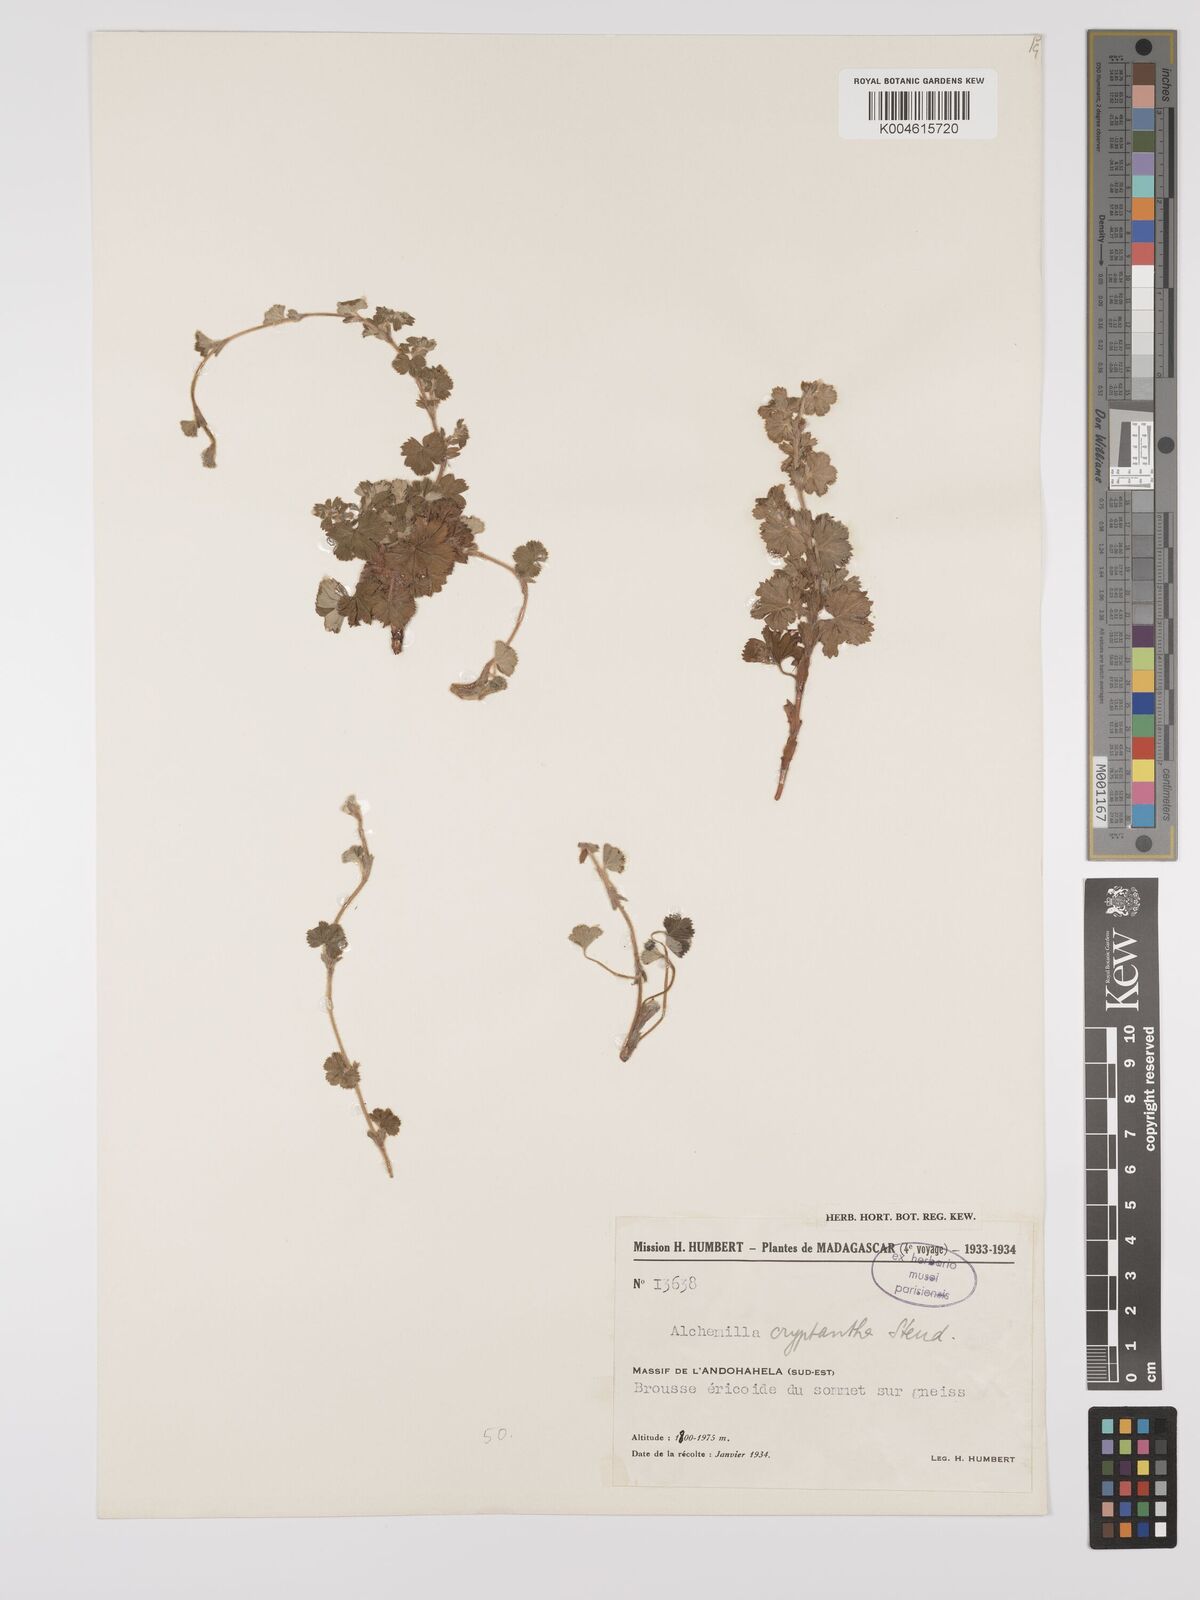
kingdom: Plantae
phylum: Tracheophyta
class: Magnoliopsida
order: Rosales
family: Rosaceae
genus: Alchemilla
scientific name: Alchemilla cryptantha
